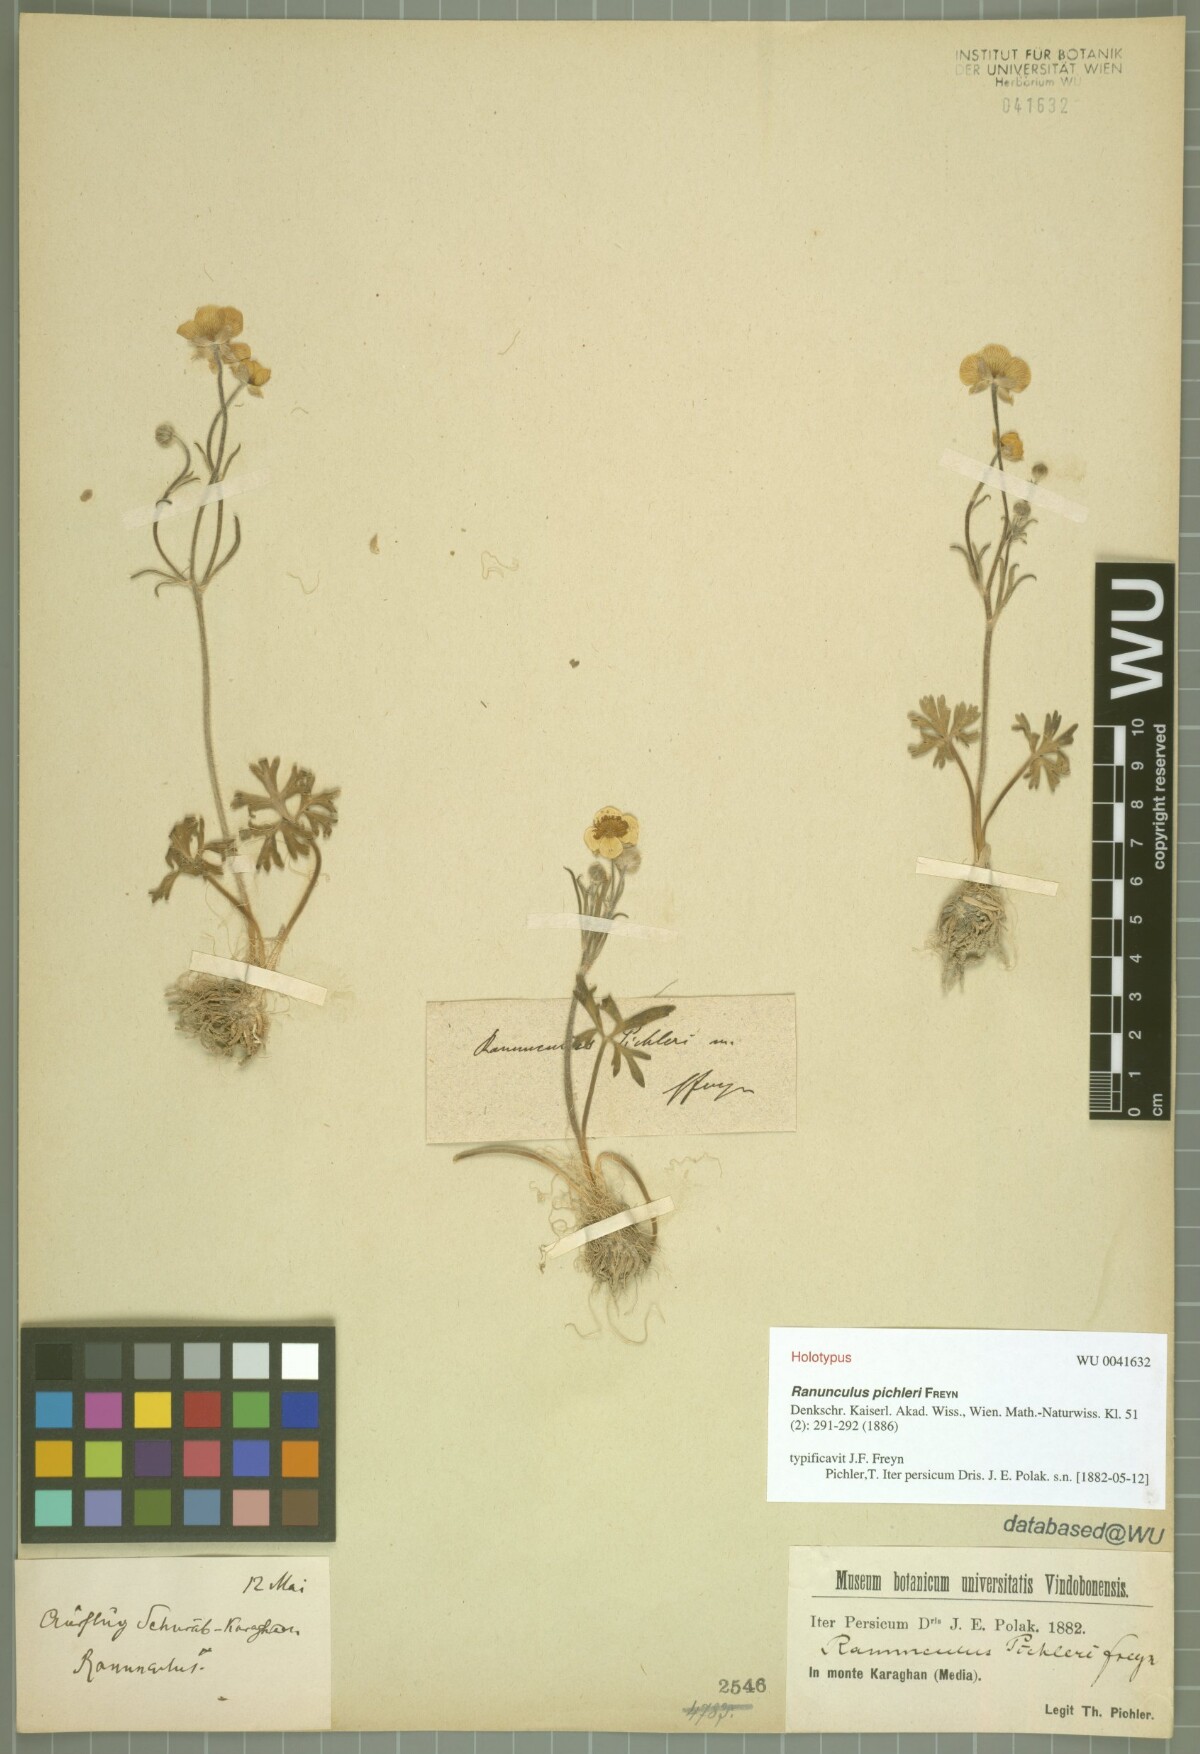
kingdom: Plantae
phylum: Tracheophyta
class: Magnoliopsida
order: Ranunculales
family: Ranunculaceae
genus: Ranunculus
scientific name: Ranunculus pichleri
